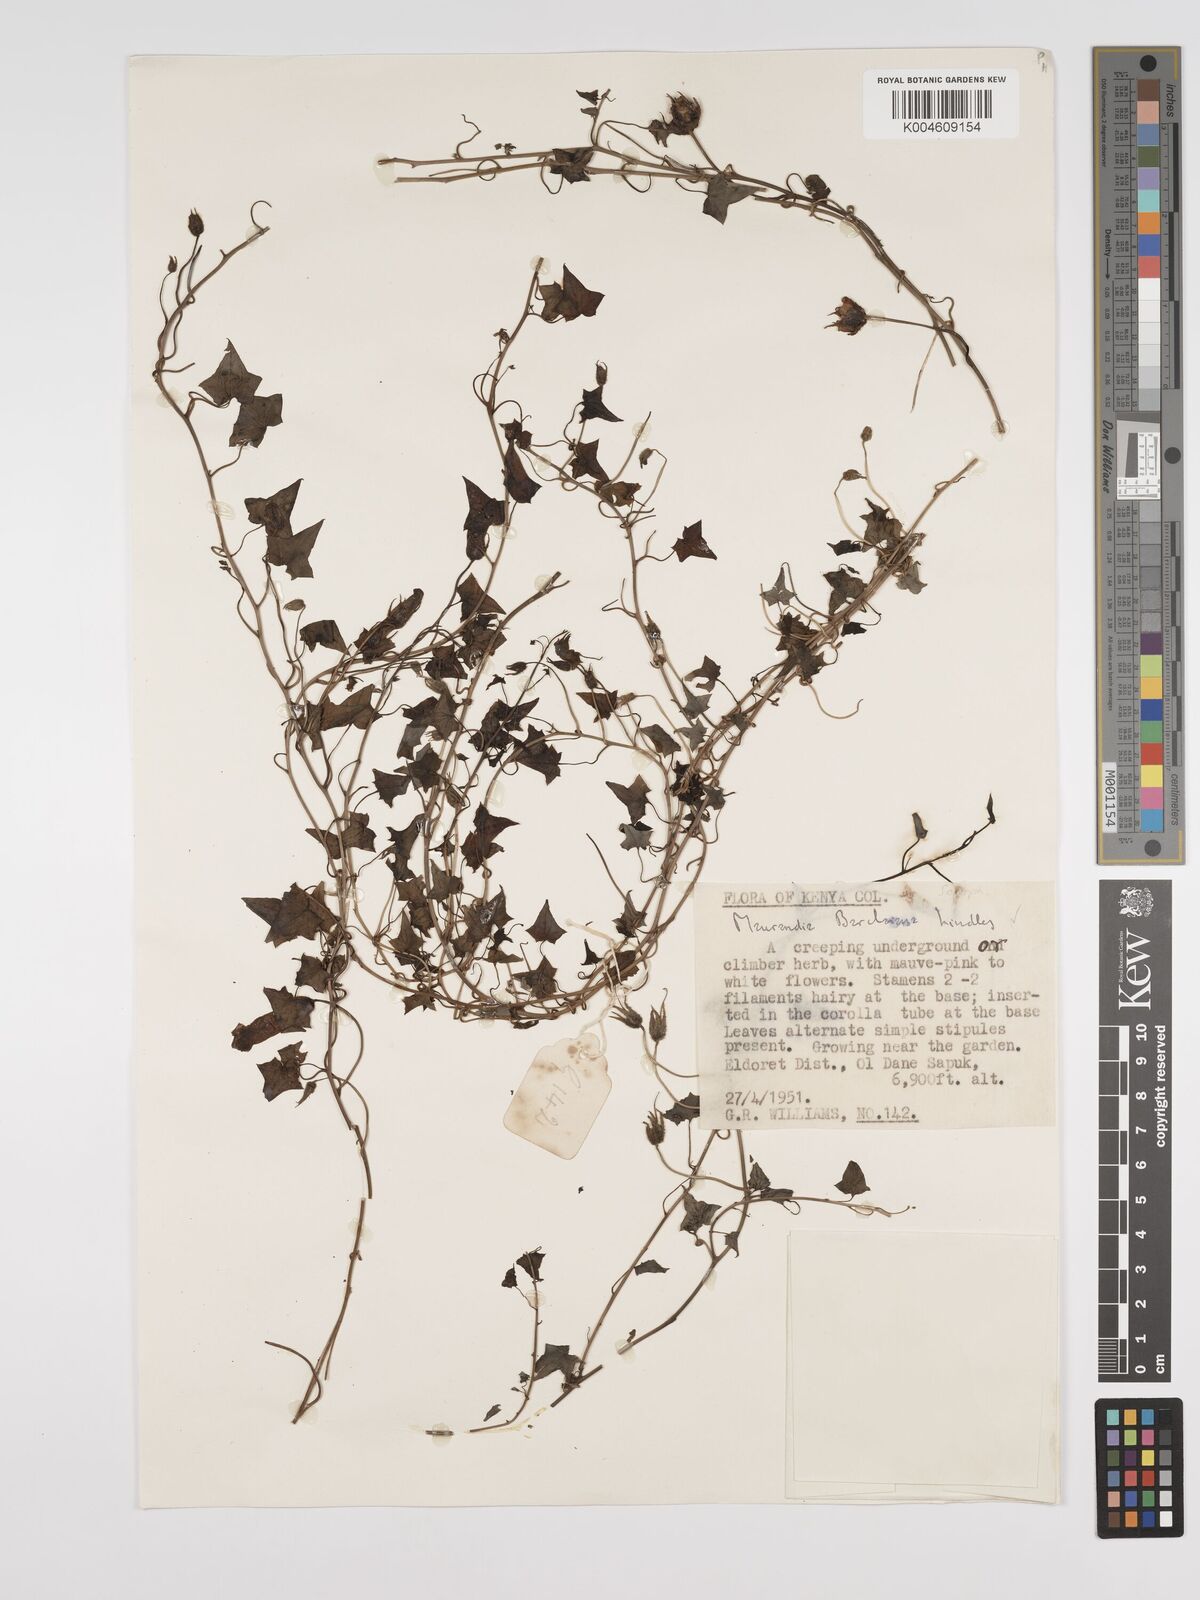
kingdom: Plantae
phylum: Tracheophyta
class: Magnoliopsida
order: Lamiales
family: Plantaginaceae
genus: Maurandya
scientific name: Maurandya barclayana
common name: Mexican viper
